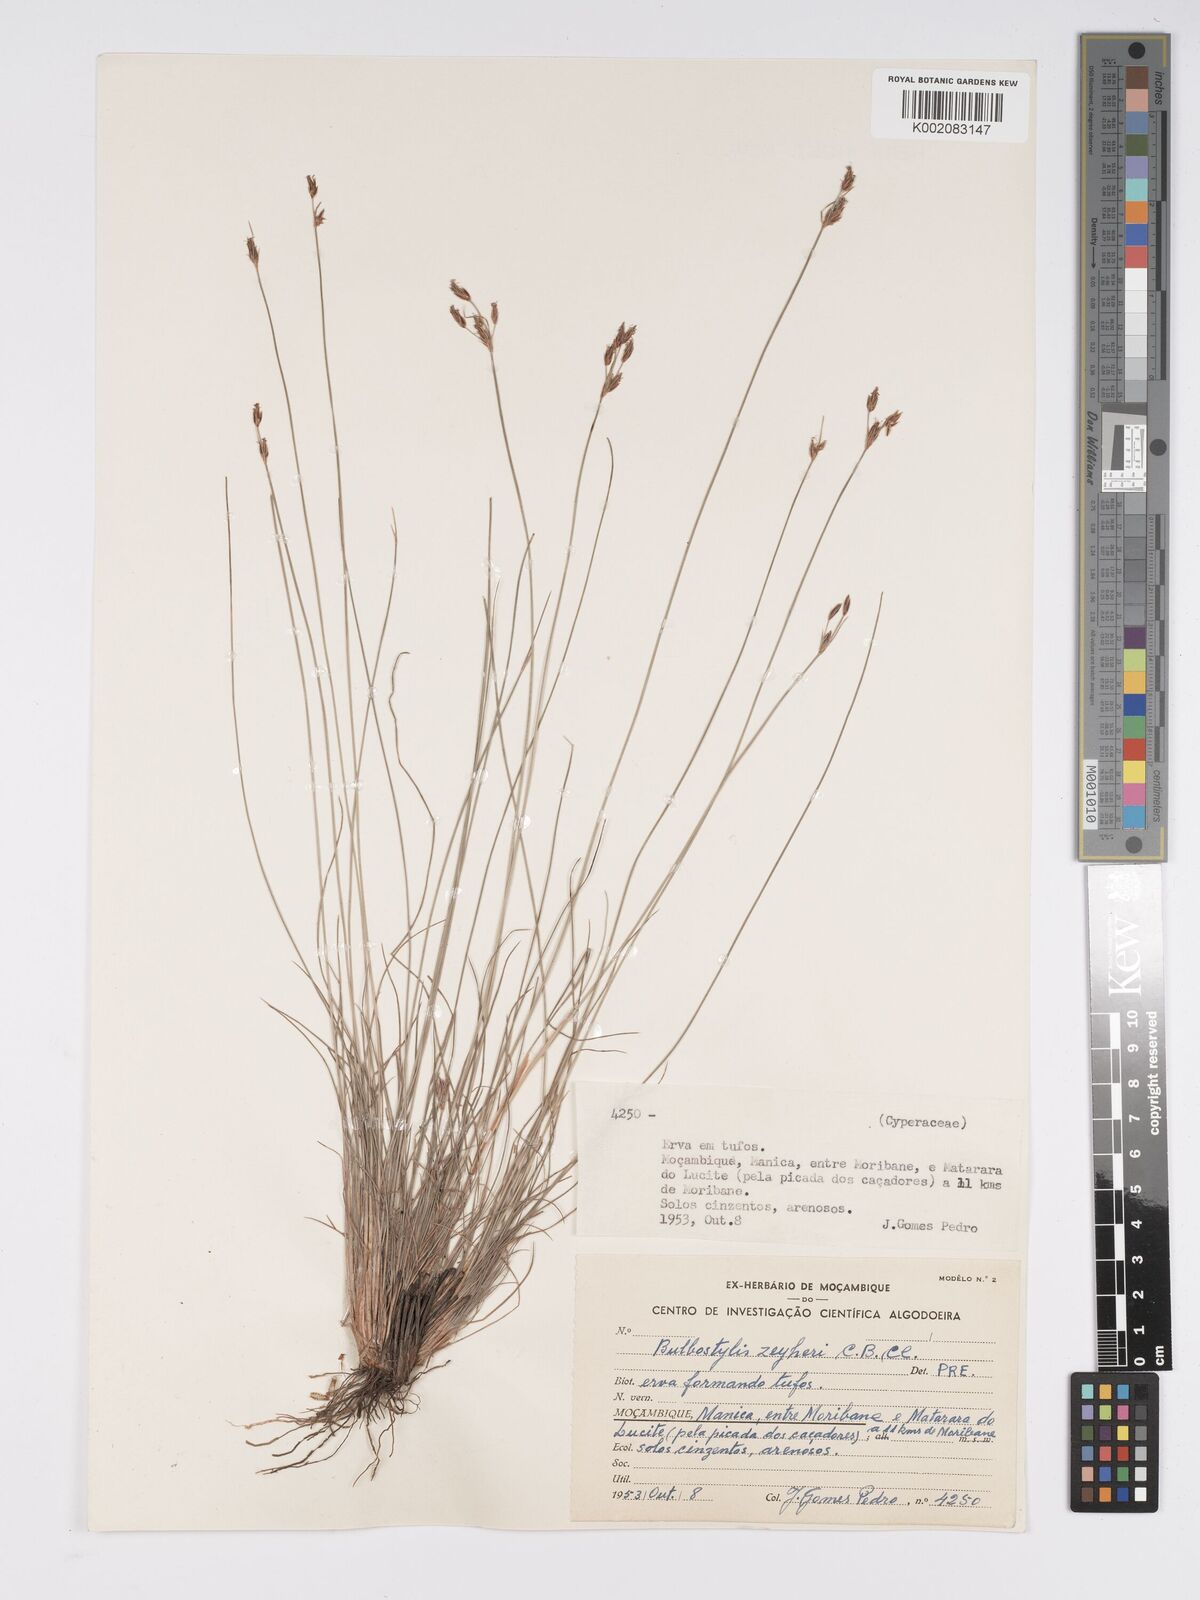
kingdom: Plantae
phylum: Tracheophyta
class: Liliopsida
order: Poales
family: Cyperaceae
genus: Bulbostylis
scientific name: Bulbostylis schoenoides
